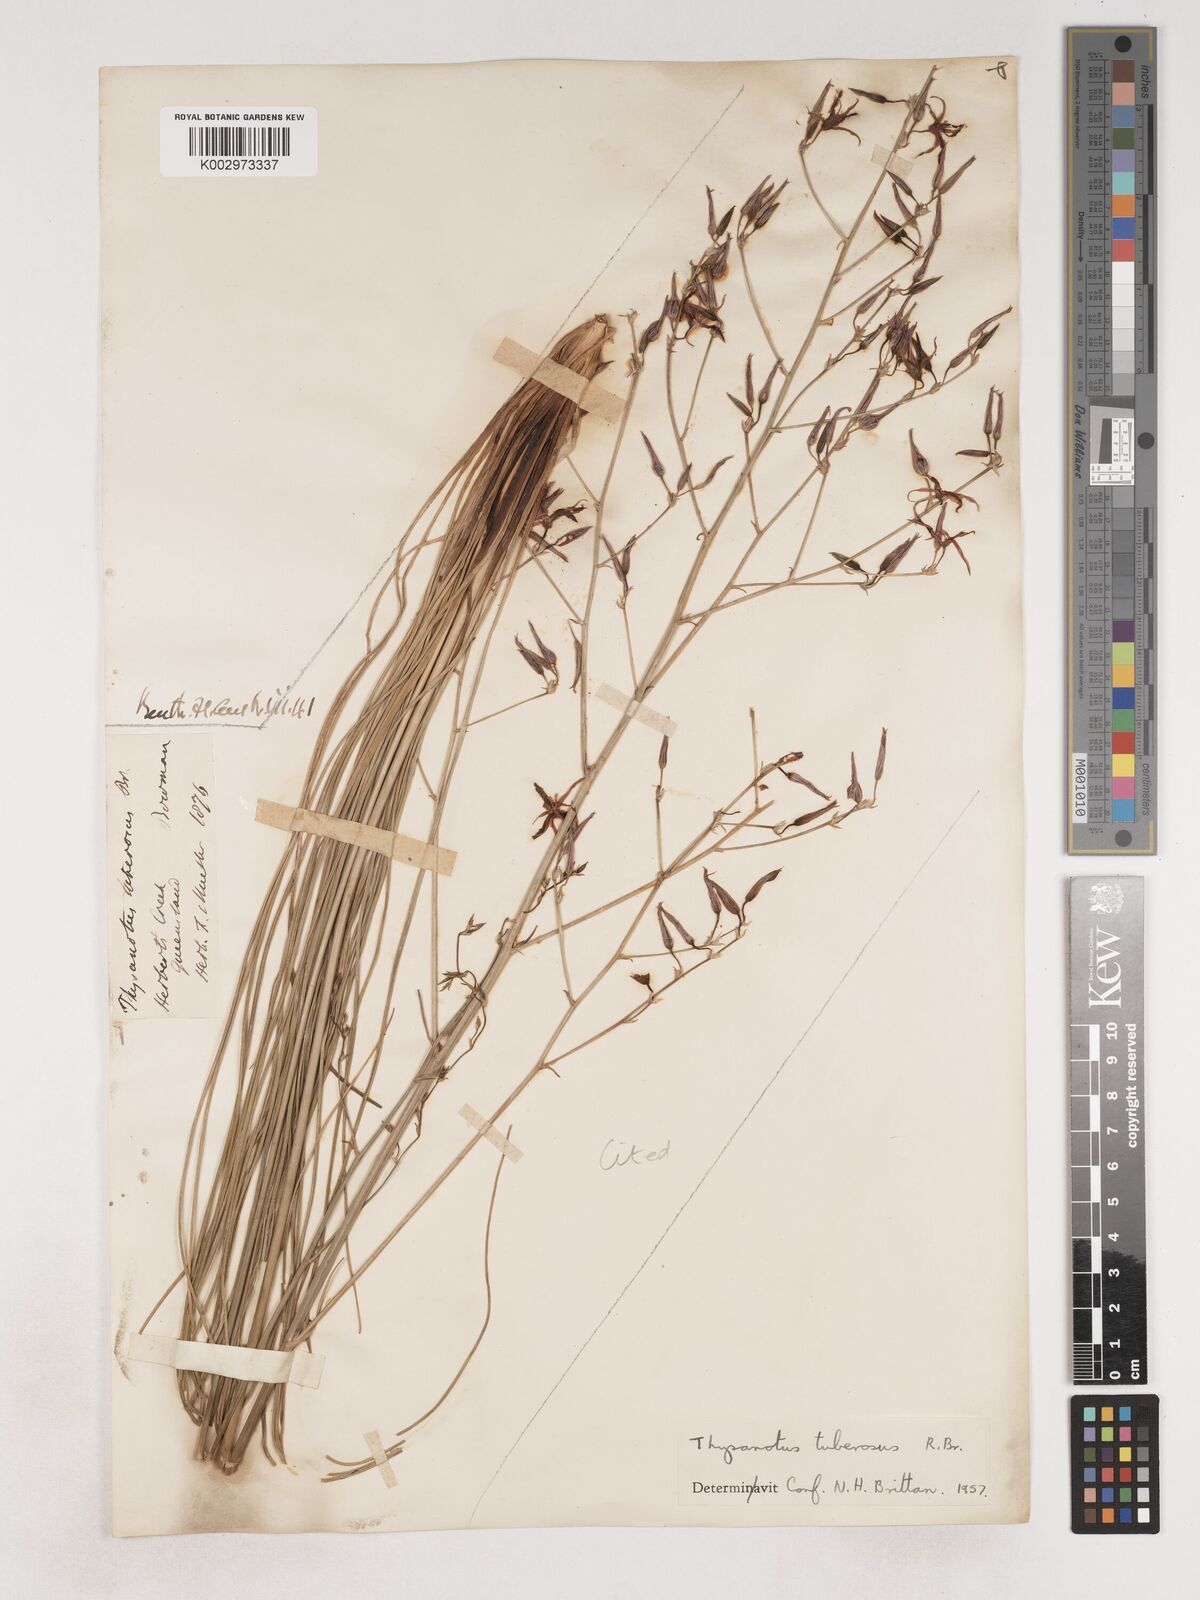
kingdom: Plantae
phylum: Tracheophyta
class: Liliopsida
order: Asparagales
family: Asparagaceae
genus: Thysanotus
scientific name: Thysanotus tuberosus
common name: Common fringed-lily
